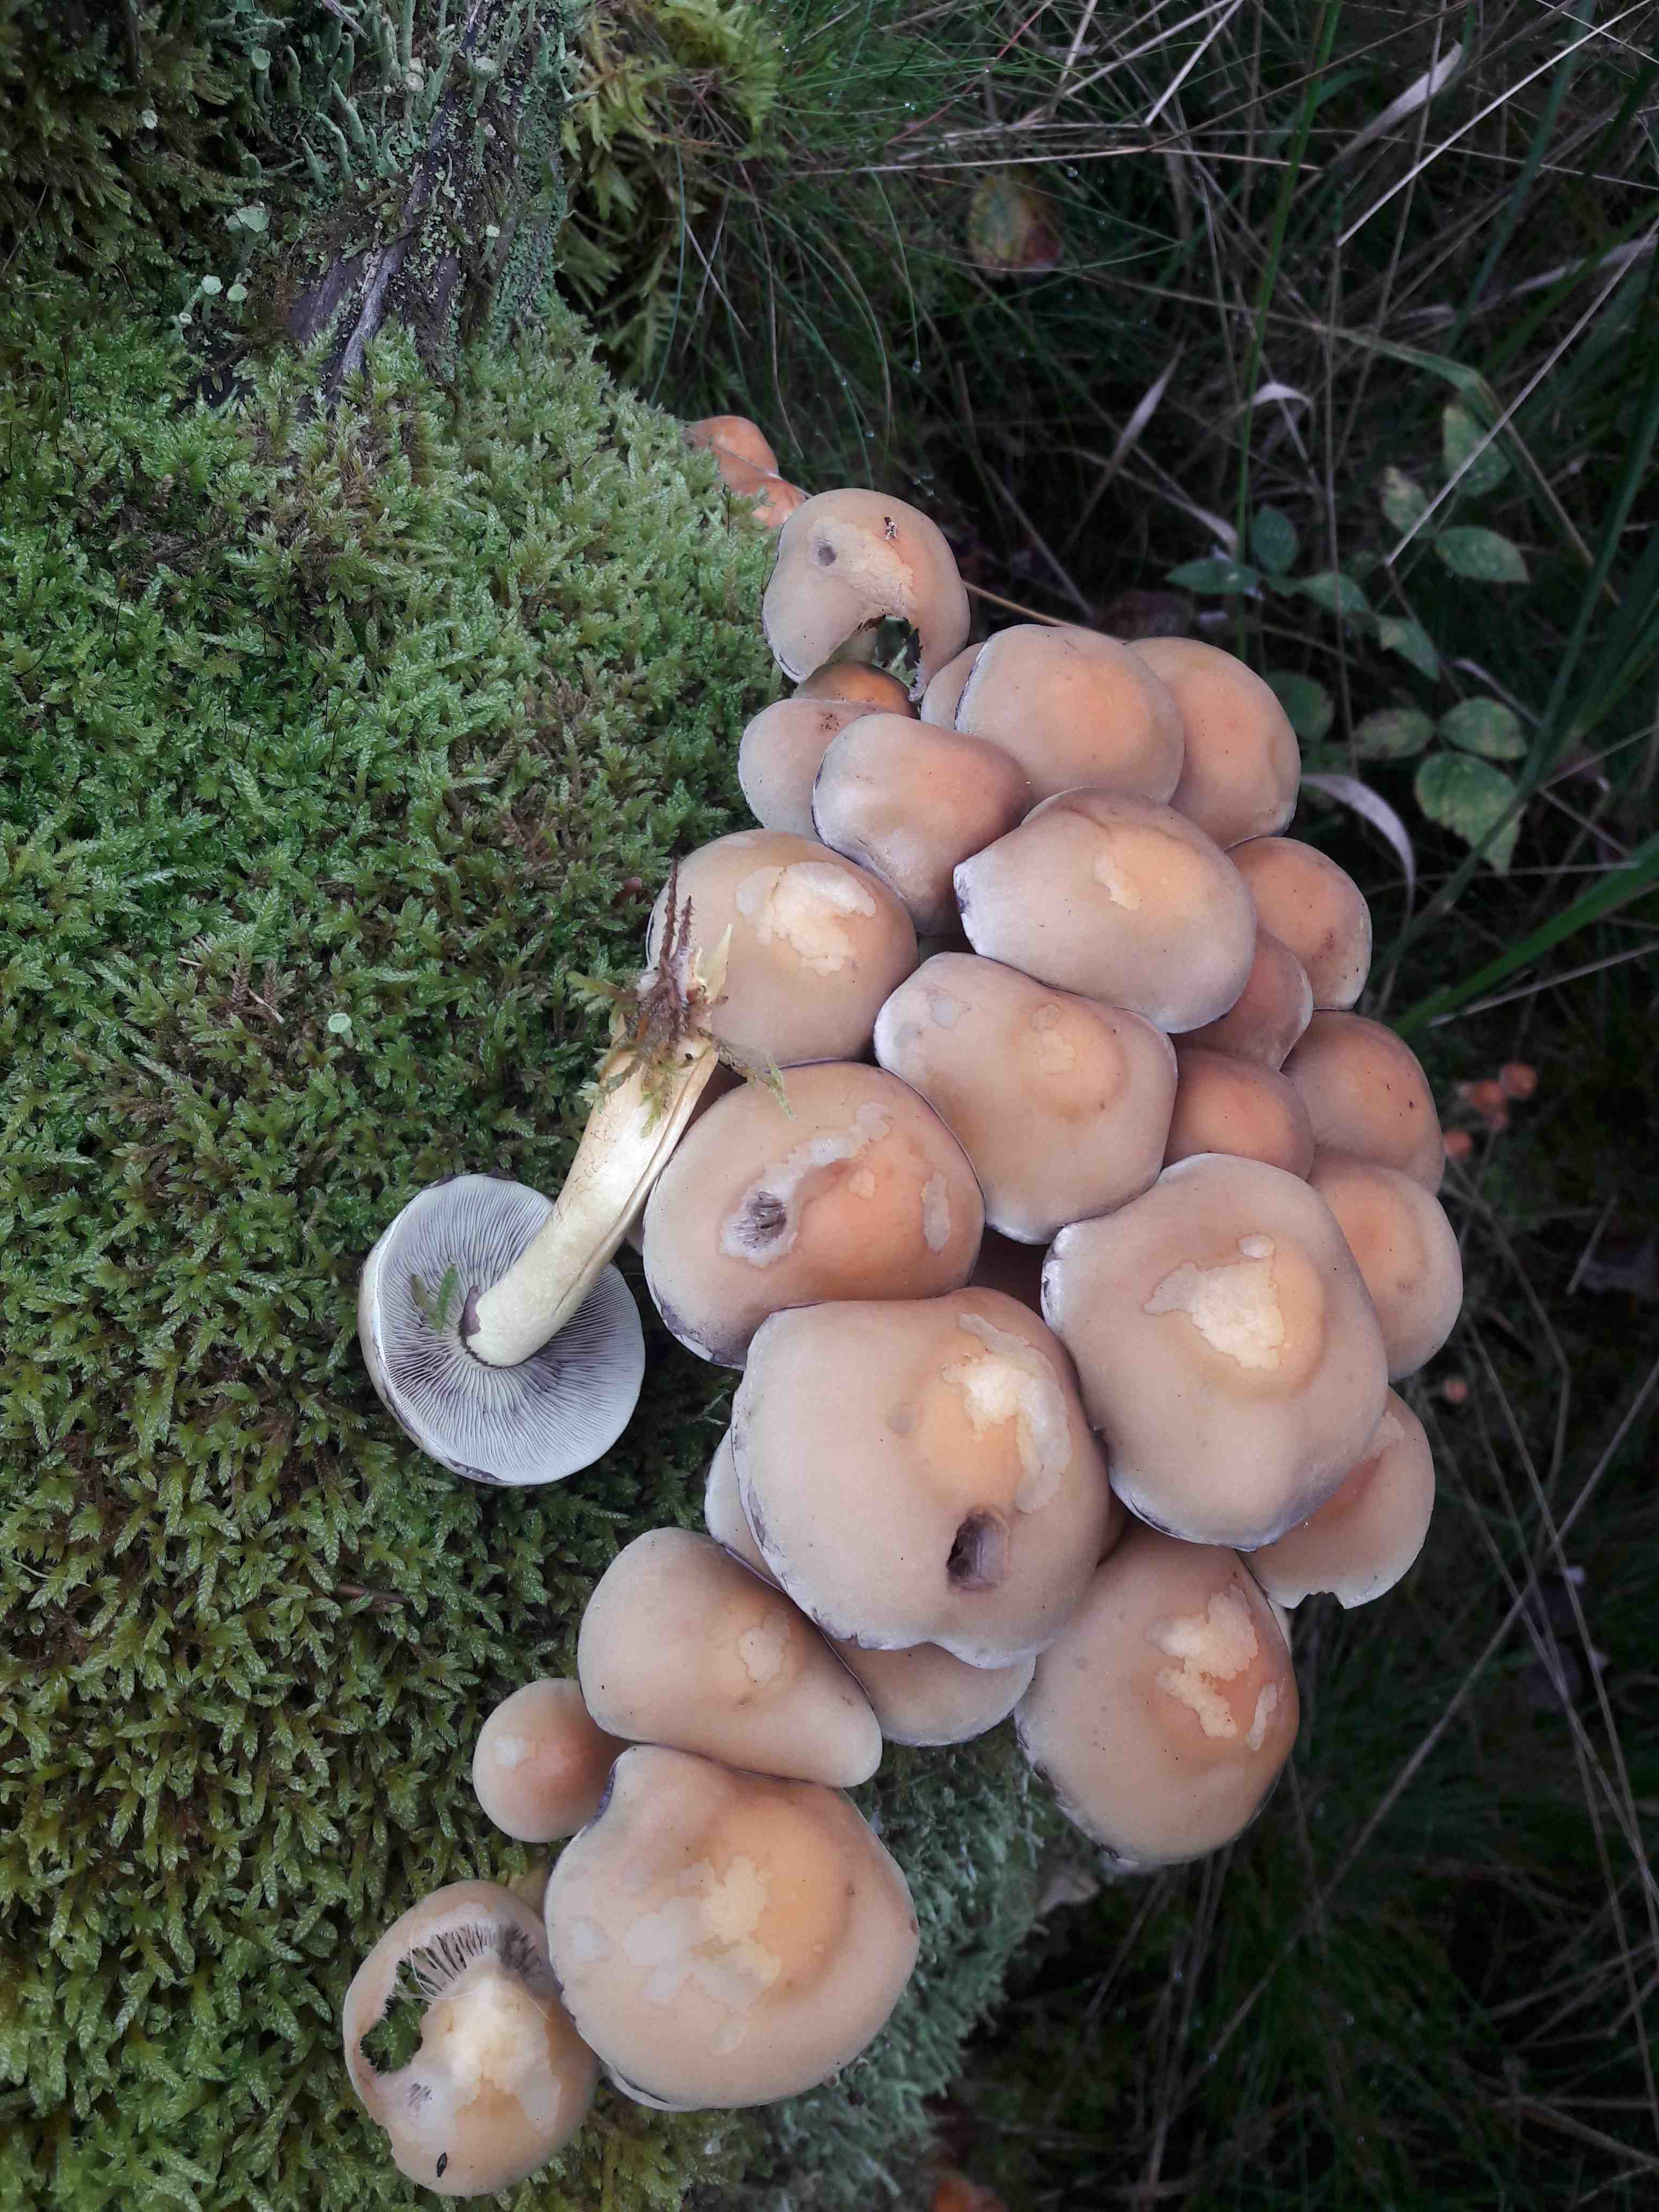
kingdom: Fungi
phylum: Basidiomycota
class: Agaricomycetes
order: Agaricales
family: Strophariaceae
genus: Hypholoma
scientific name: Hypholoma fasciculare
